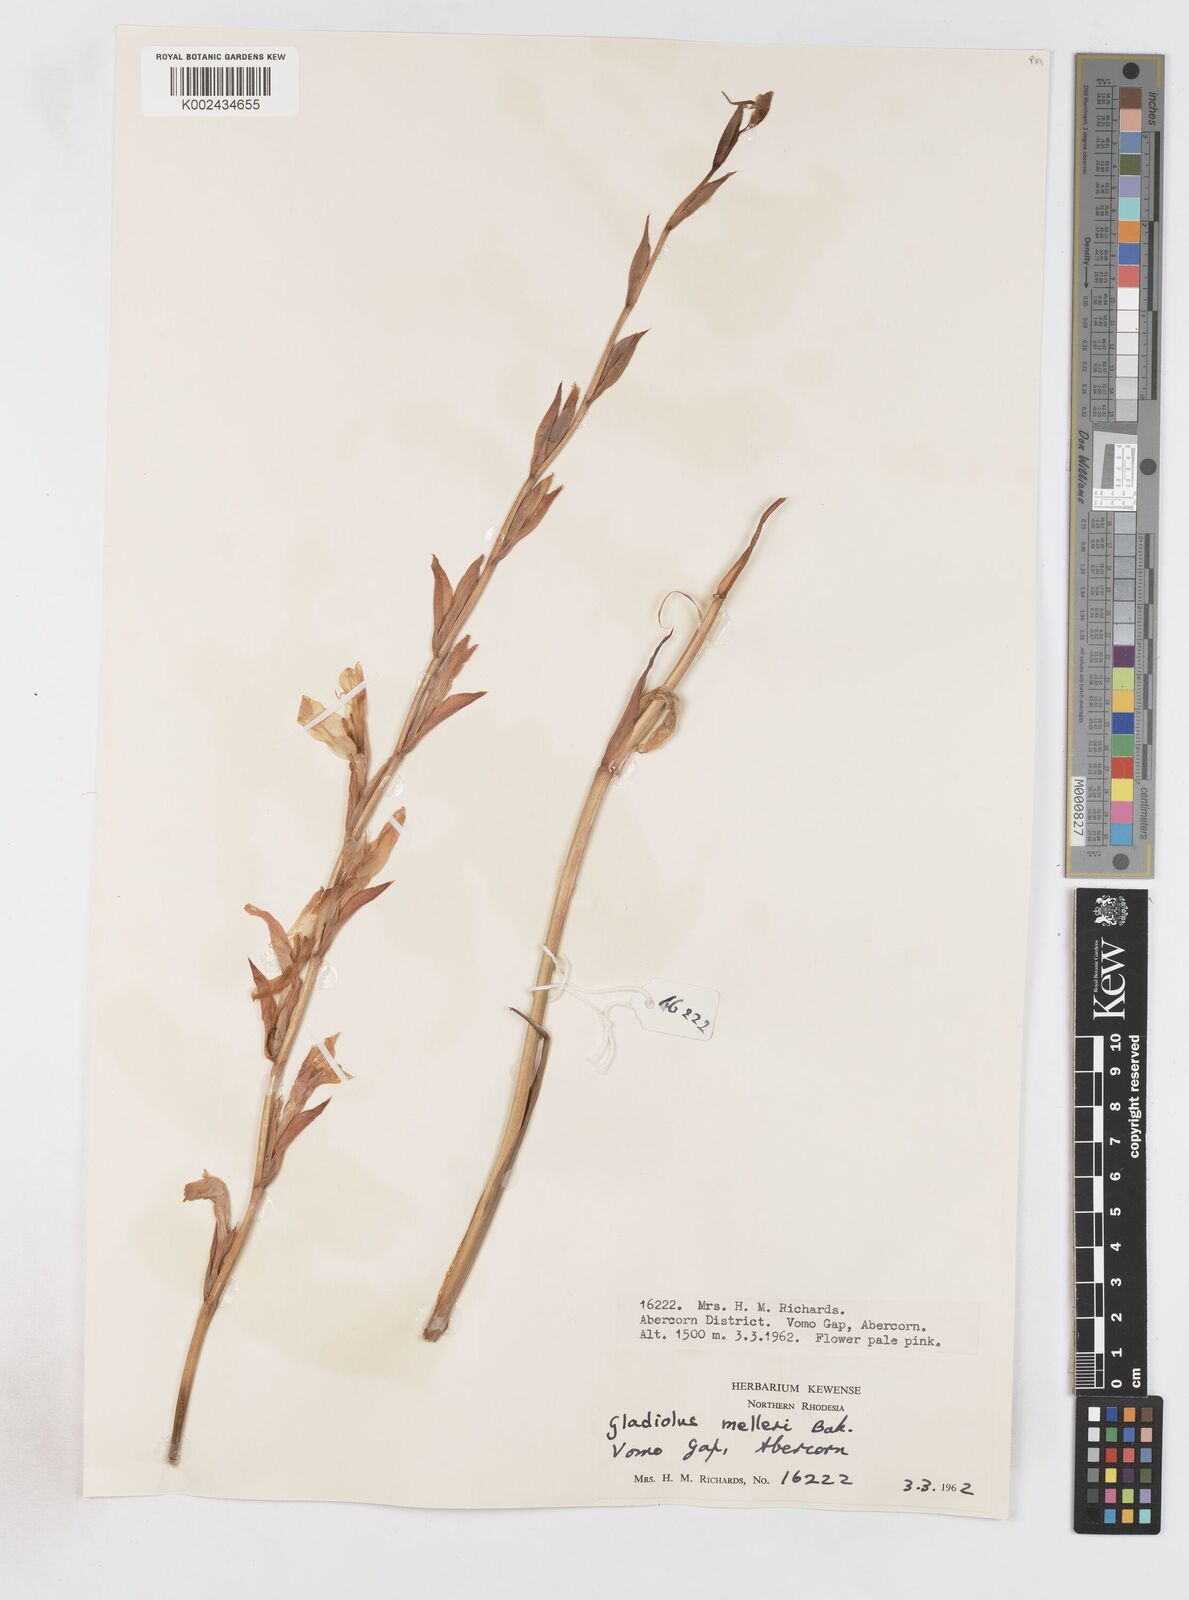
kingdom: Plantae
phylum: Tracheophyta
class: Liliopsida
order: Asparagales
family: Iridaceae
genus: Gladiolus
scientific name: Gladiolus melleri
